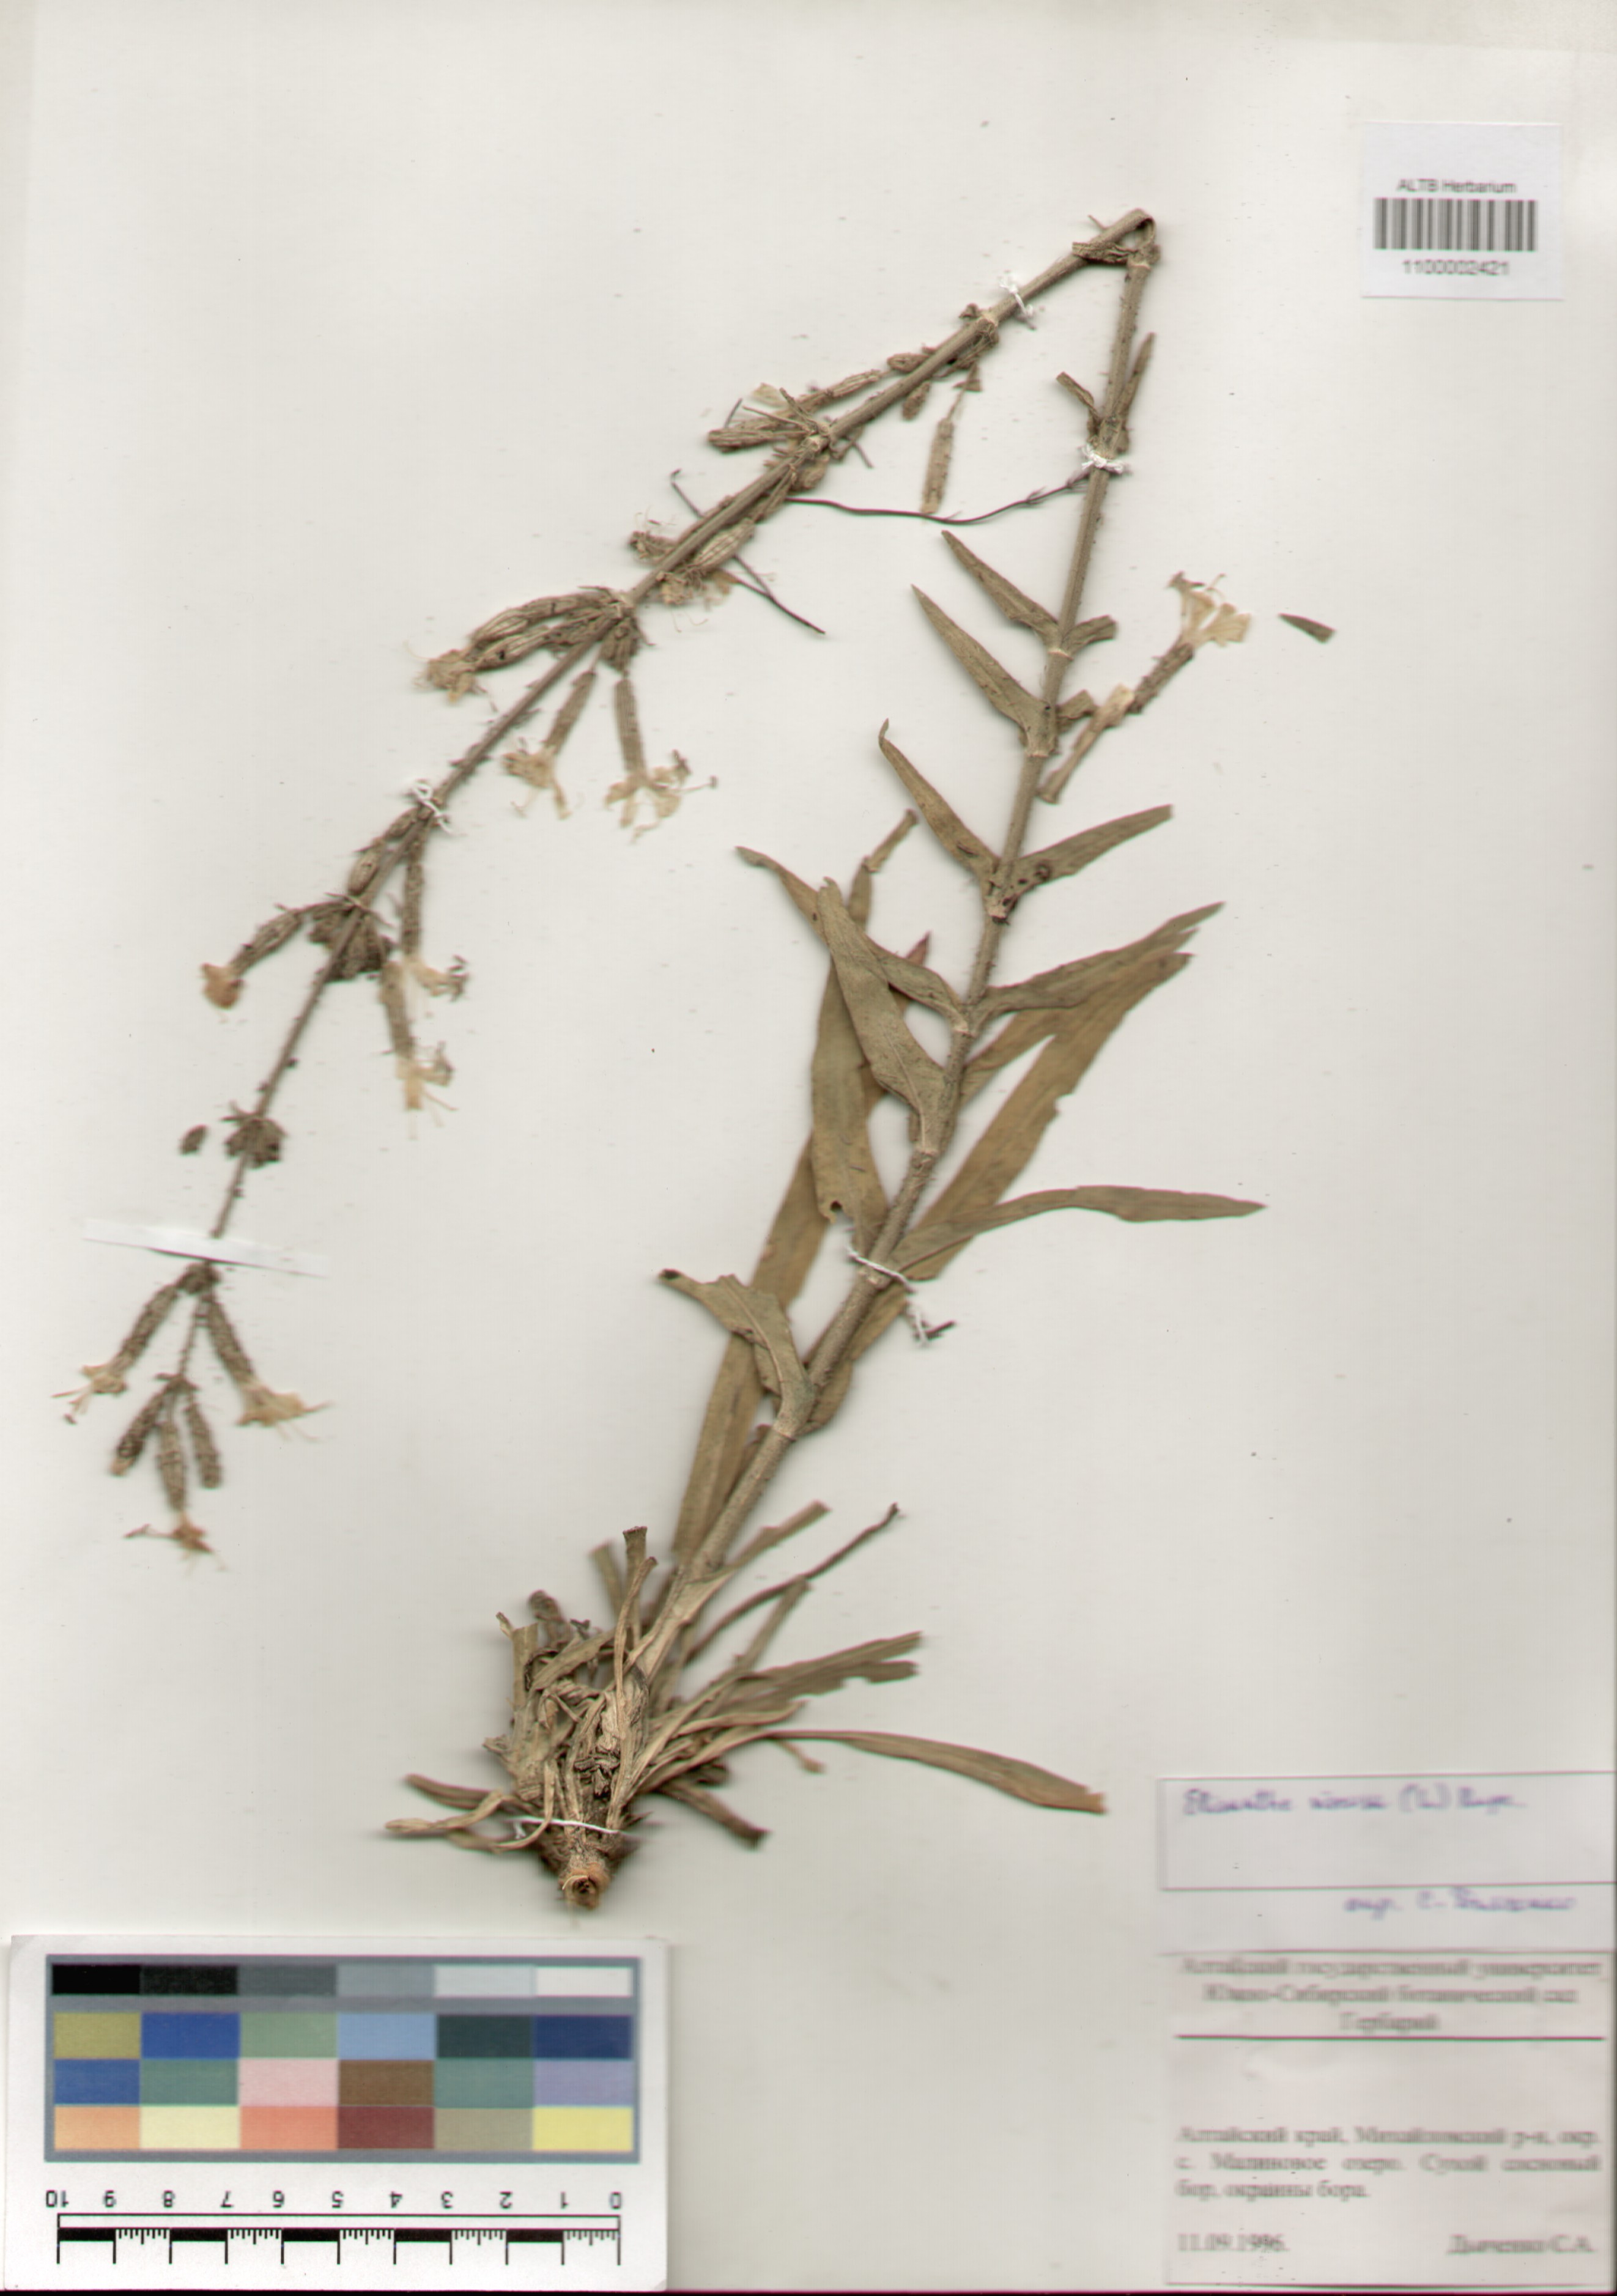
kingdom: Plantae
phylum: Tracheophyta
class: Magnoliopsida
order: Caryophyllales
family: Caryophyllaceae
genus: Silene
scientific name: Silene viscosa
